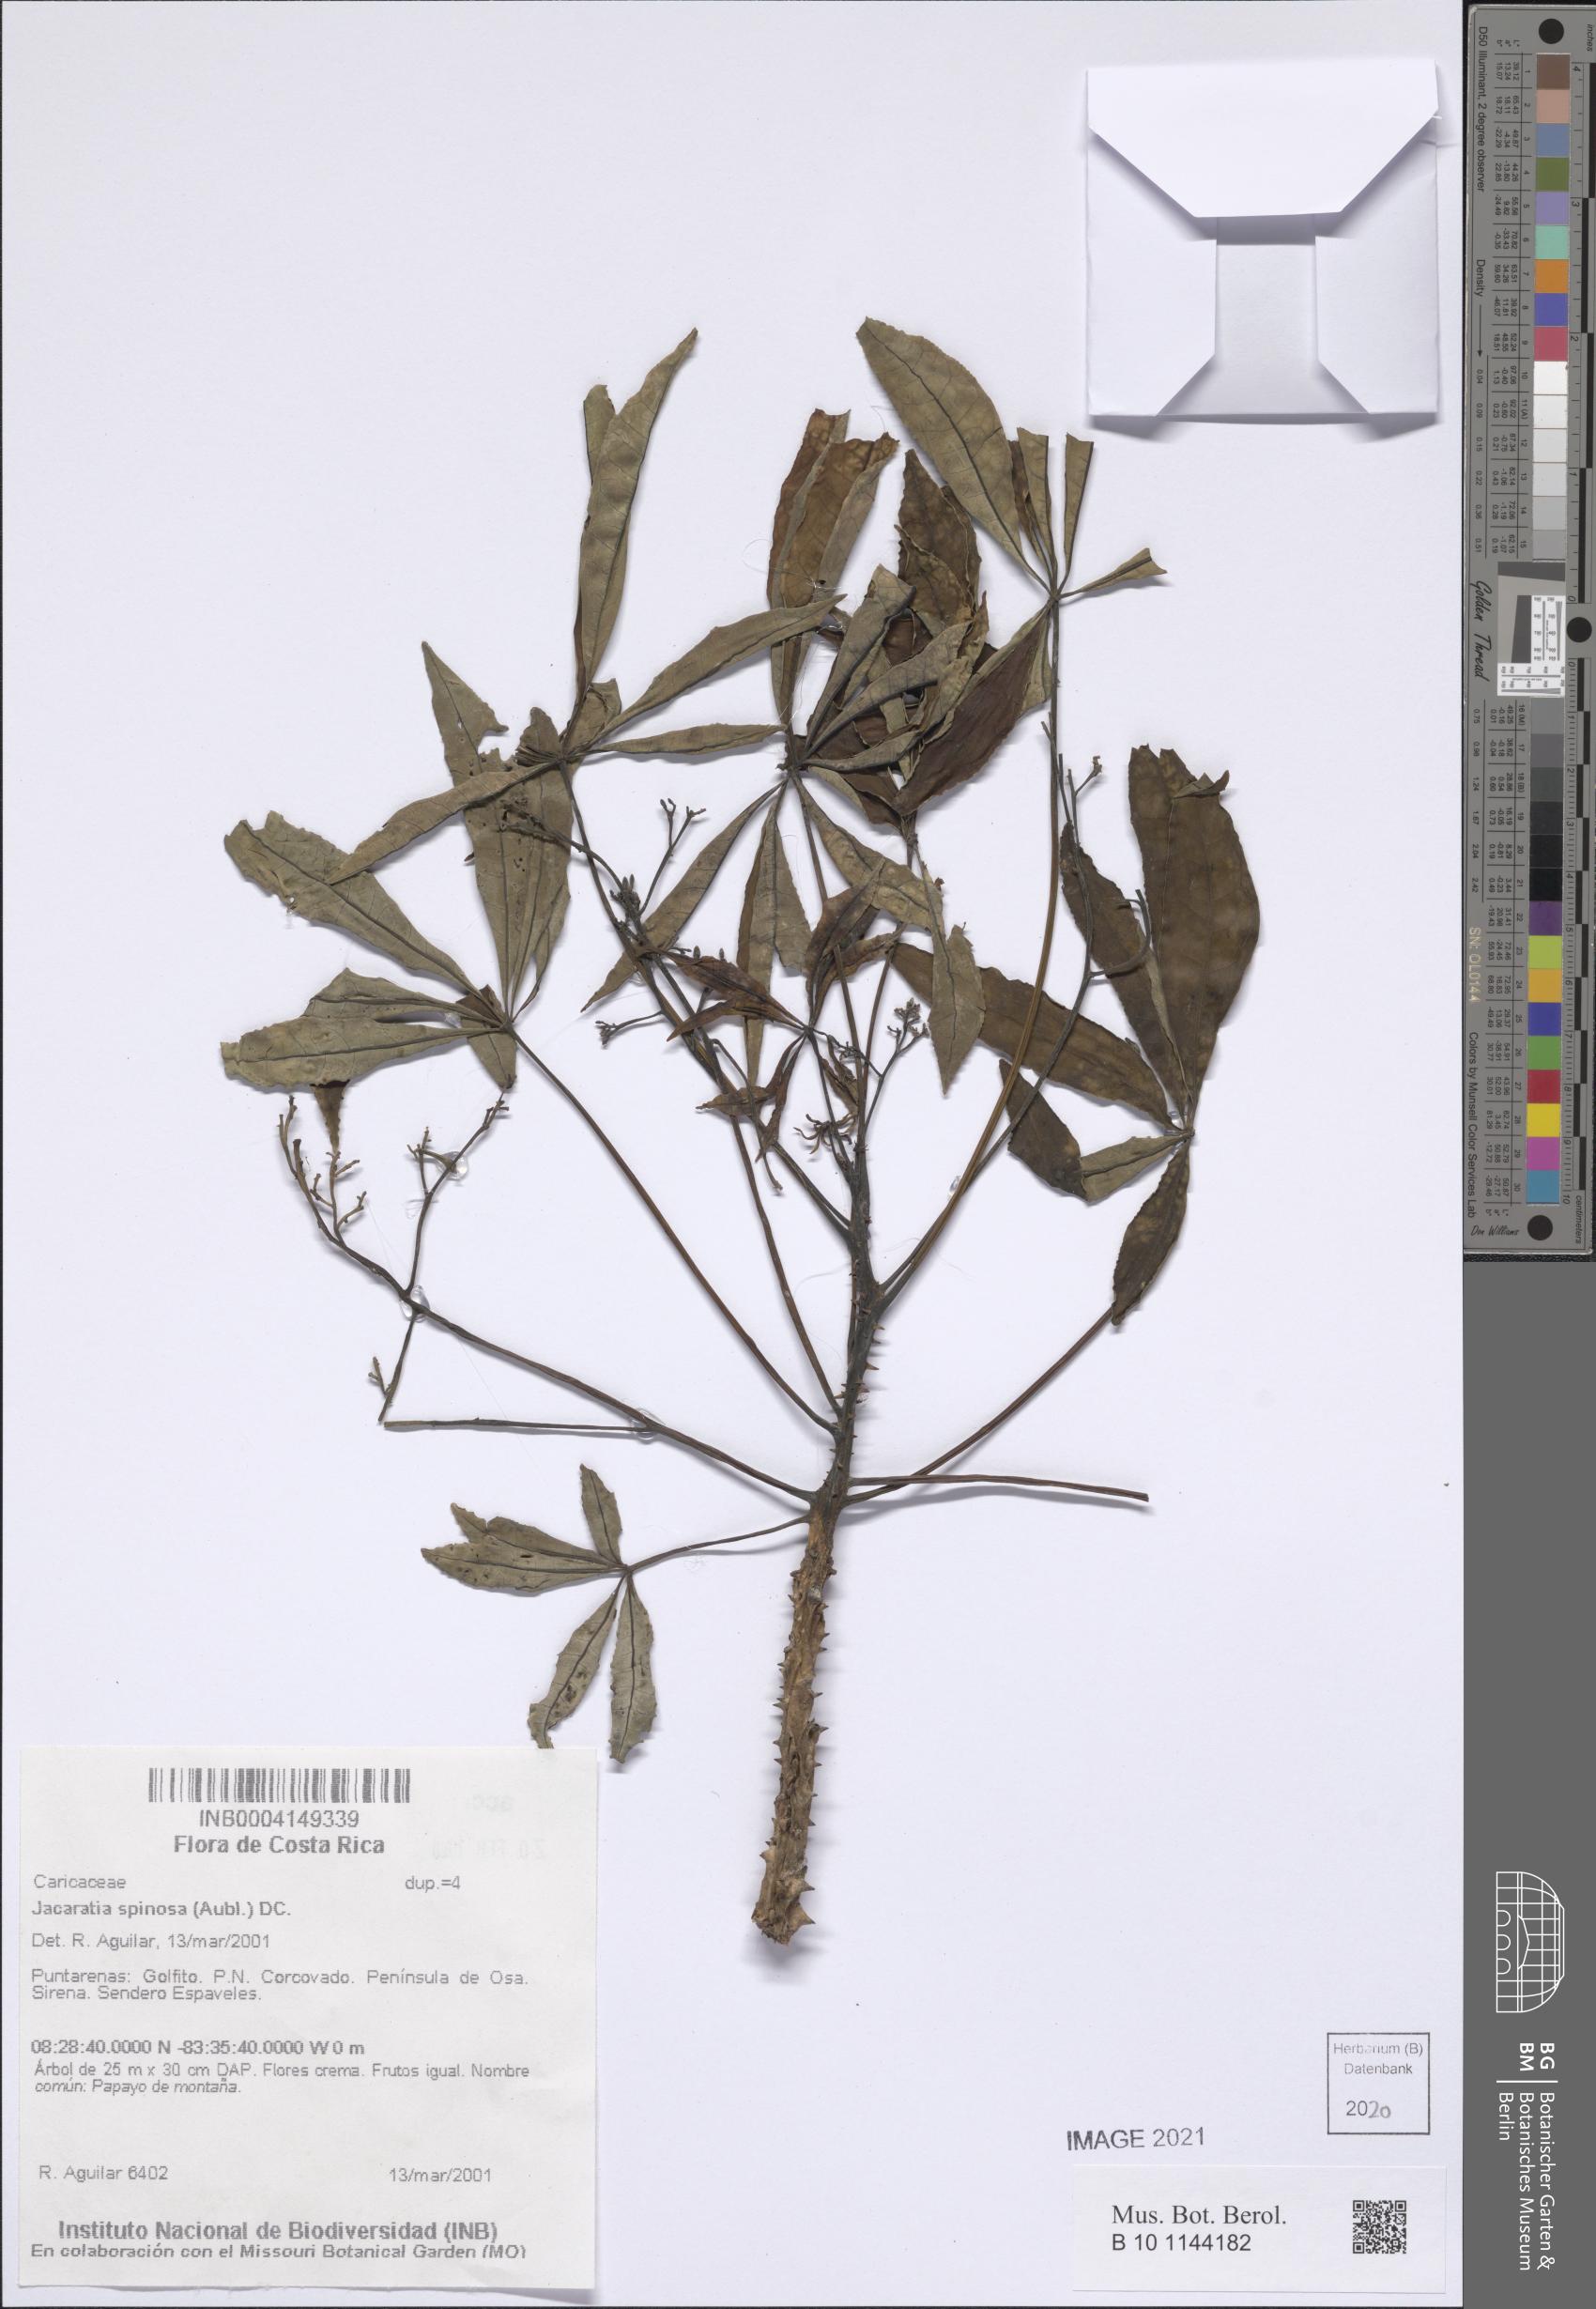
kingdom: Plantae
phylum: Tracheophyta
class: Magnoliopsida
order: Brassicales
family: Caricaceae
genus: Jacaratia
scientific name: Jacaratia spinosa
